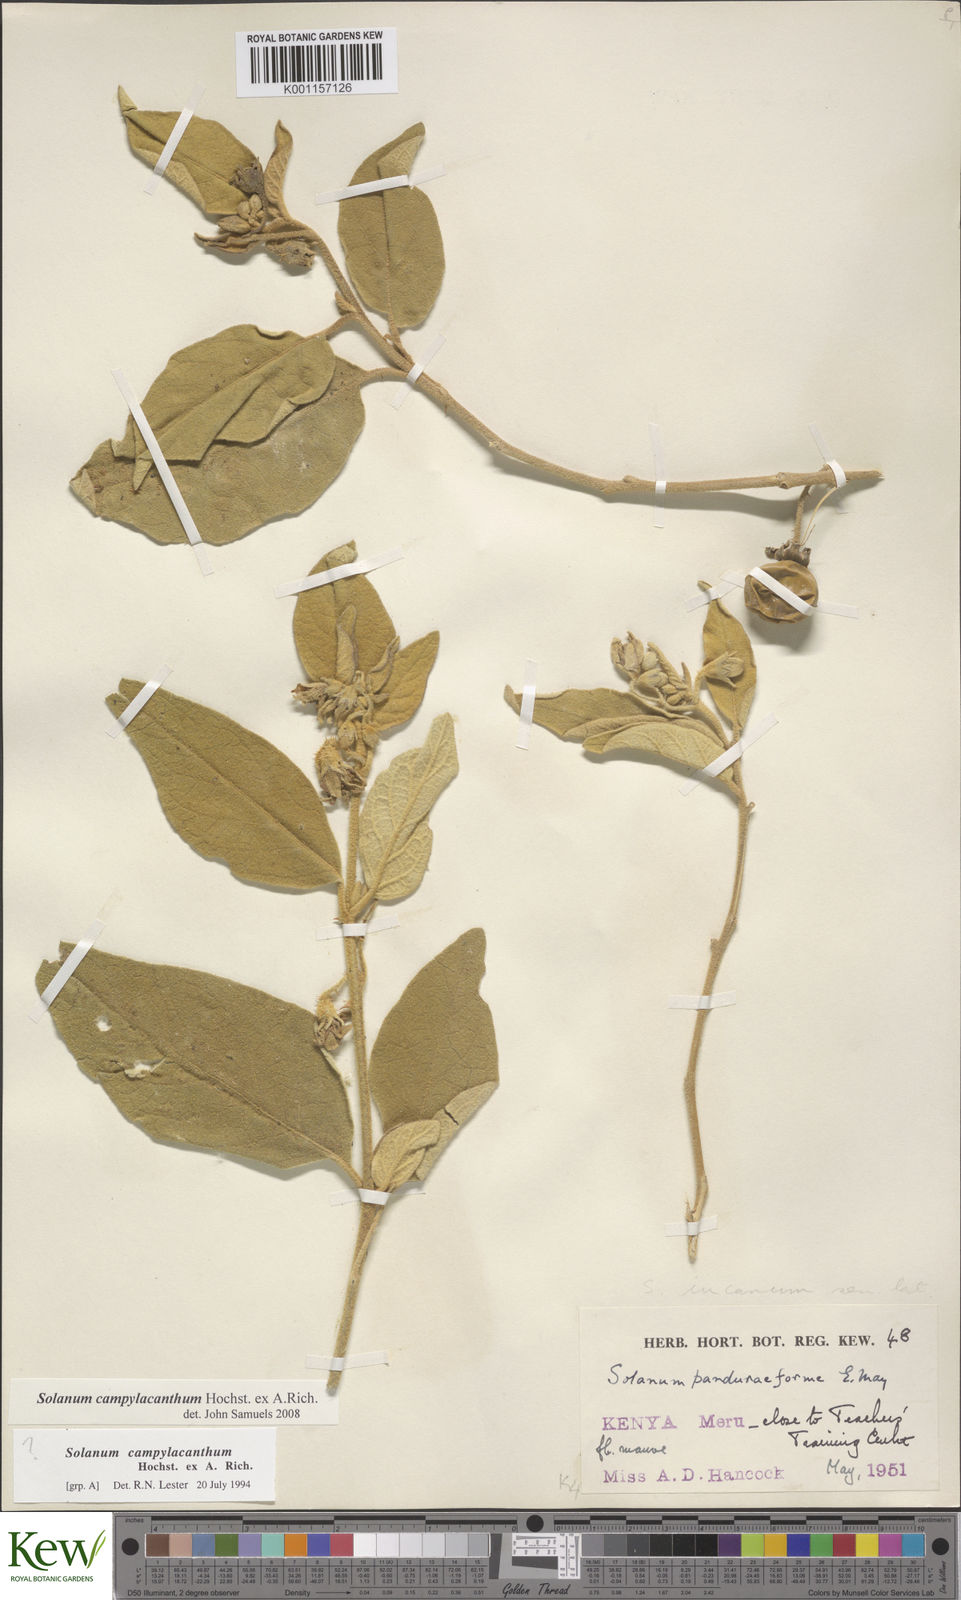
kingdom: Plantae
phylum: Tracheophyta
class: Magnoliopsida
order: Solanales
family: Solanaceae
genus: Solanum
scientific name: Solanum campylacanthum
